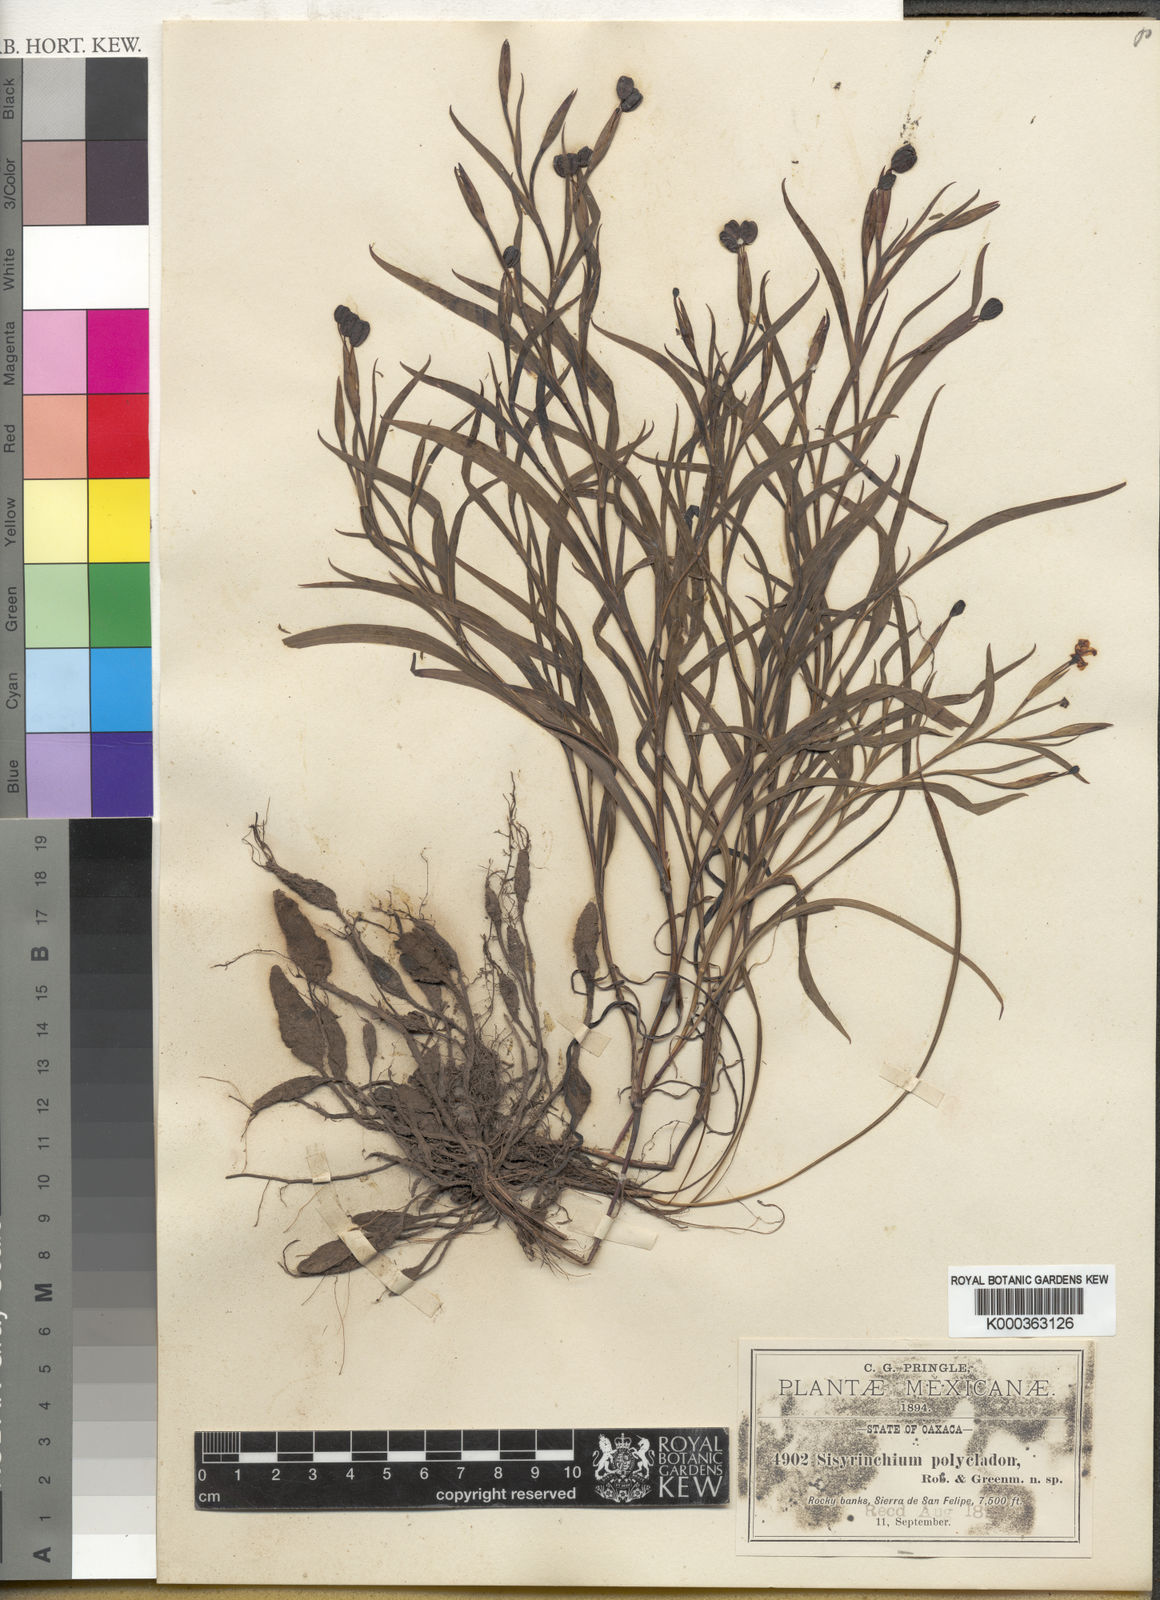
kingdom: Plantae
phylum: Tracheophyta
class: Liliopsida
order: Asparagales
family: Iridaceae
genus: Sisyrinchium
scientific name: Sisyrinchium angustissimum
